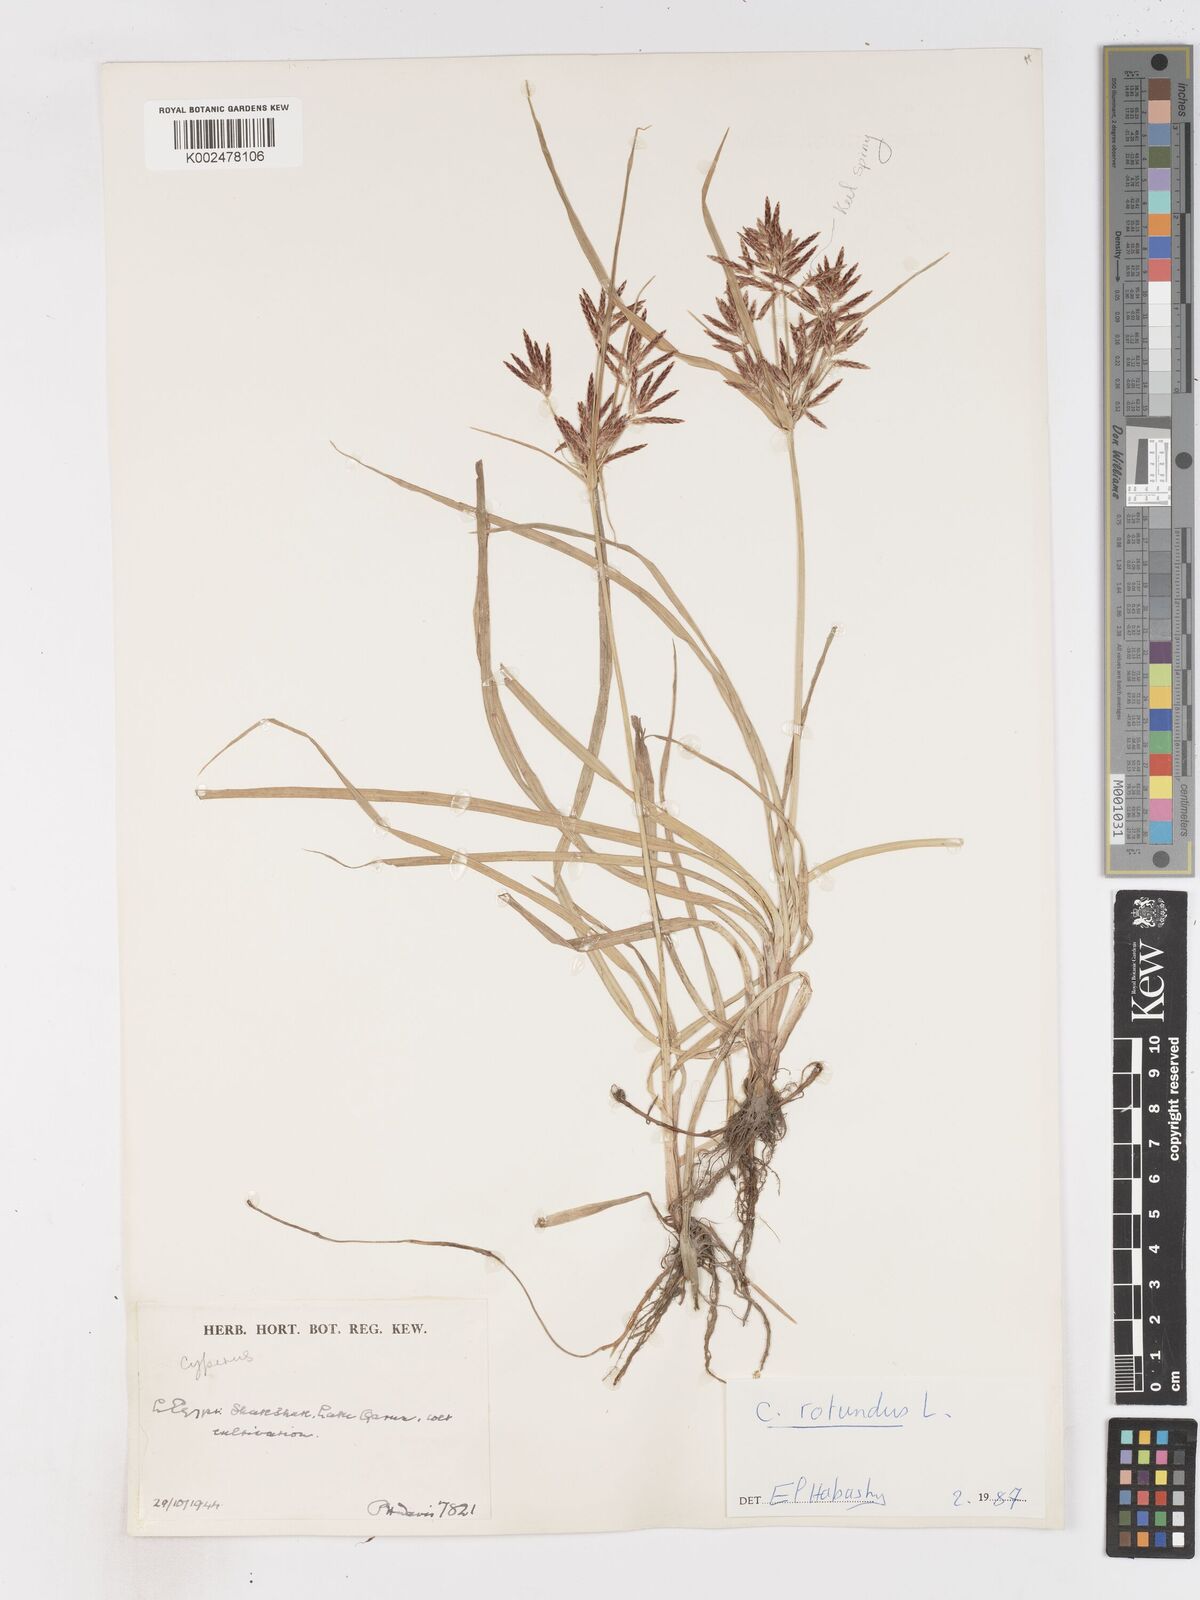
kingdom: Plantae
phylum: Tracheophyta
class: Liliopsida
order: Poales
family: Cyperaceae
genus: Cyperus
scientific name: Cyperus rotundus
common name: Nutgrass
